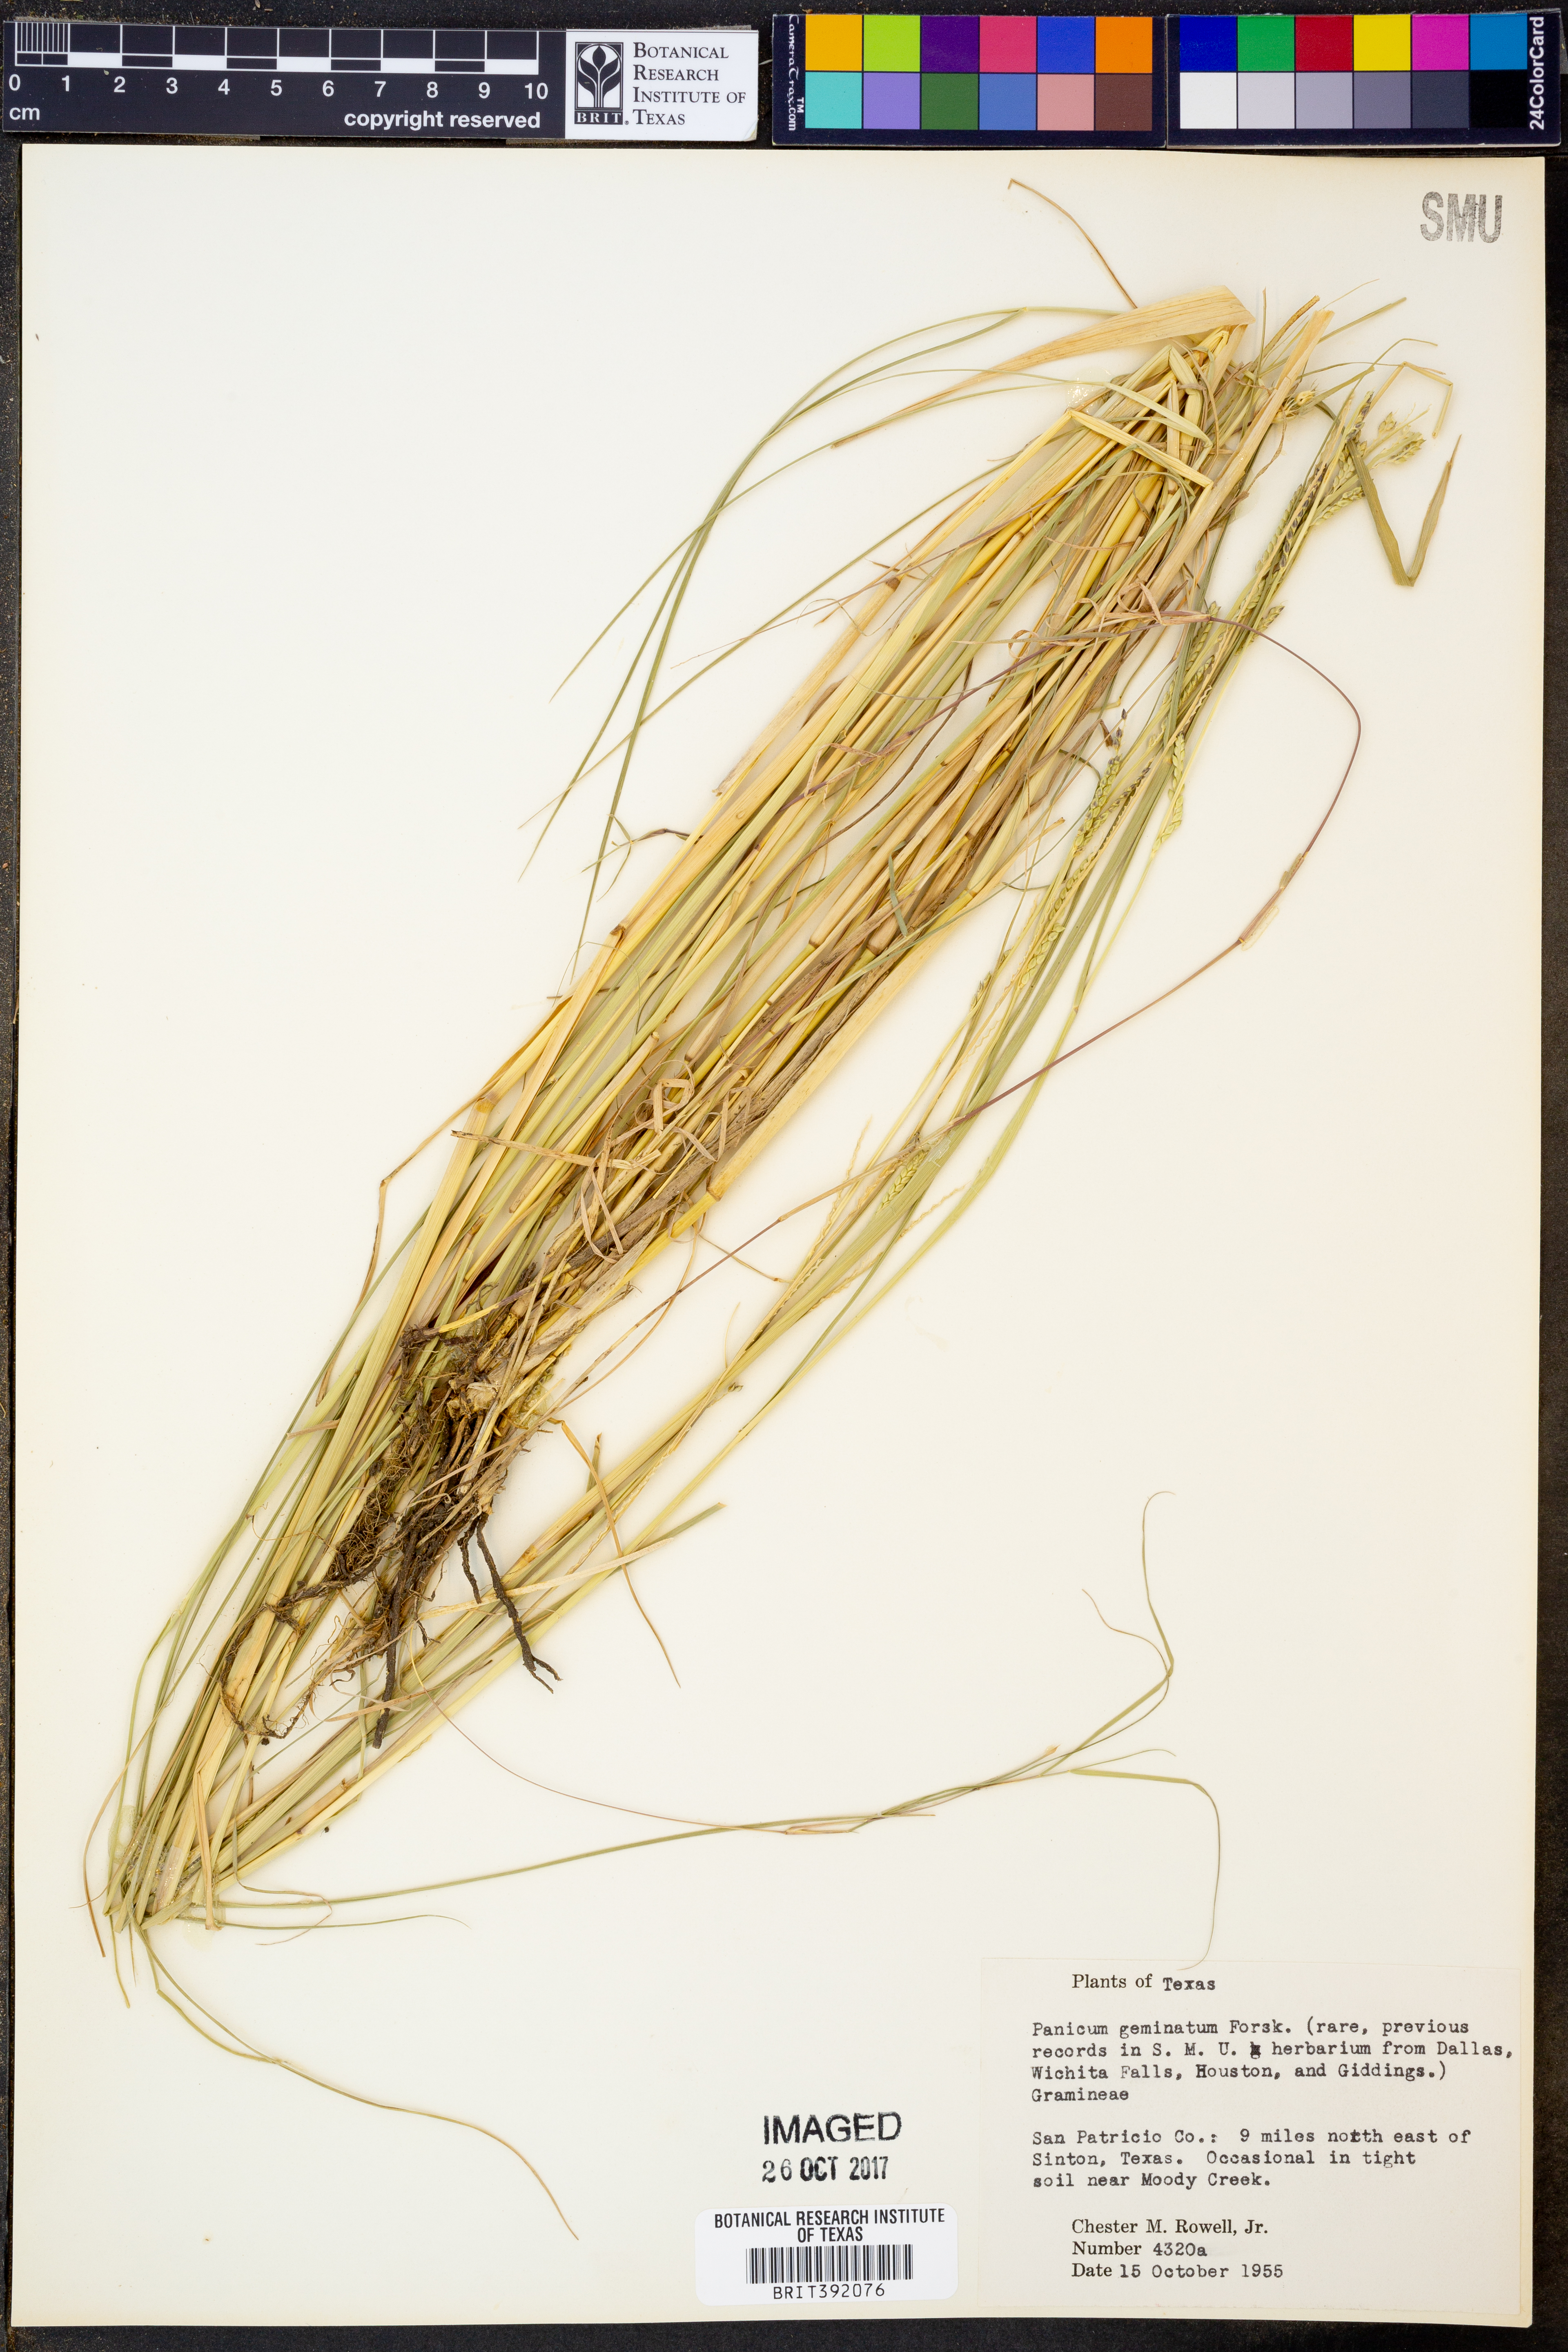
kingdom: Plantae
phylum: Tracheophyta
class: Liliopsida
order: Poales
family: Poaceae
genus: Setaria
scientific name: Setaria geminata
